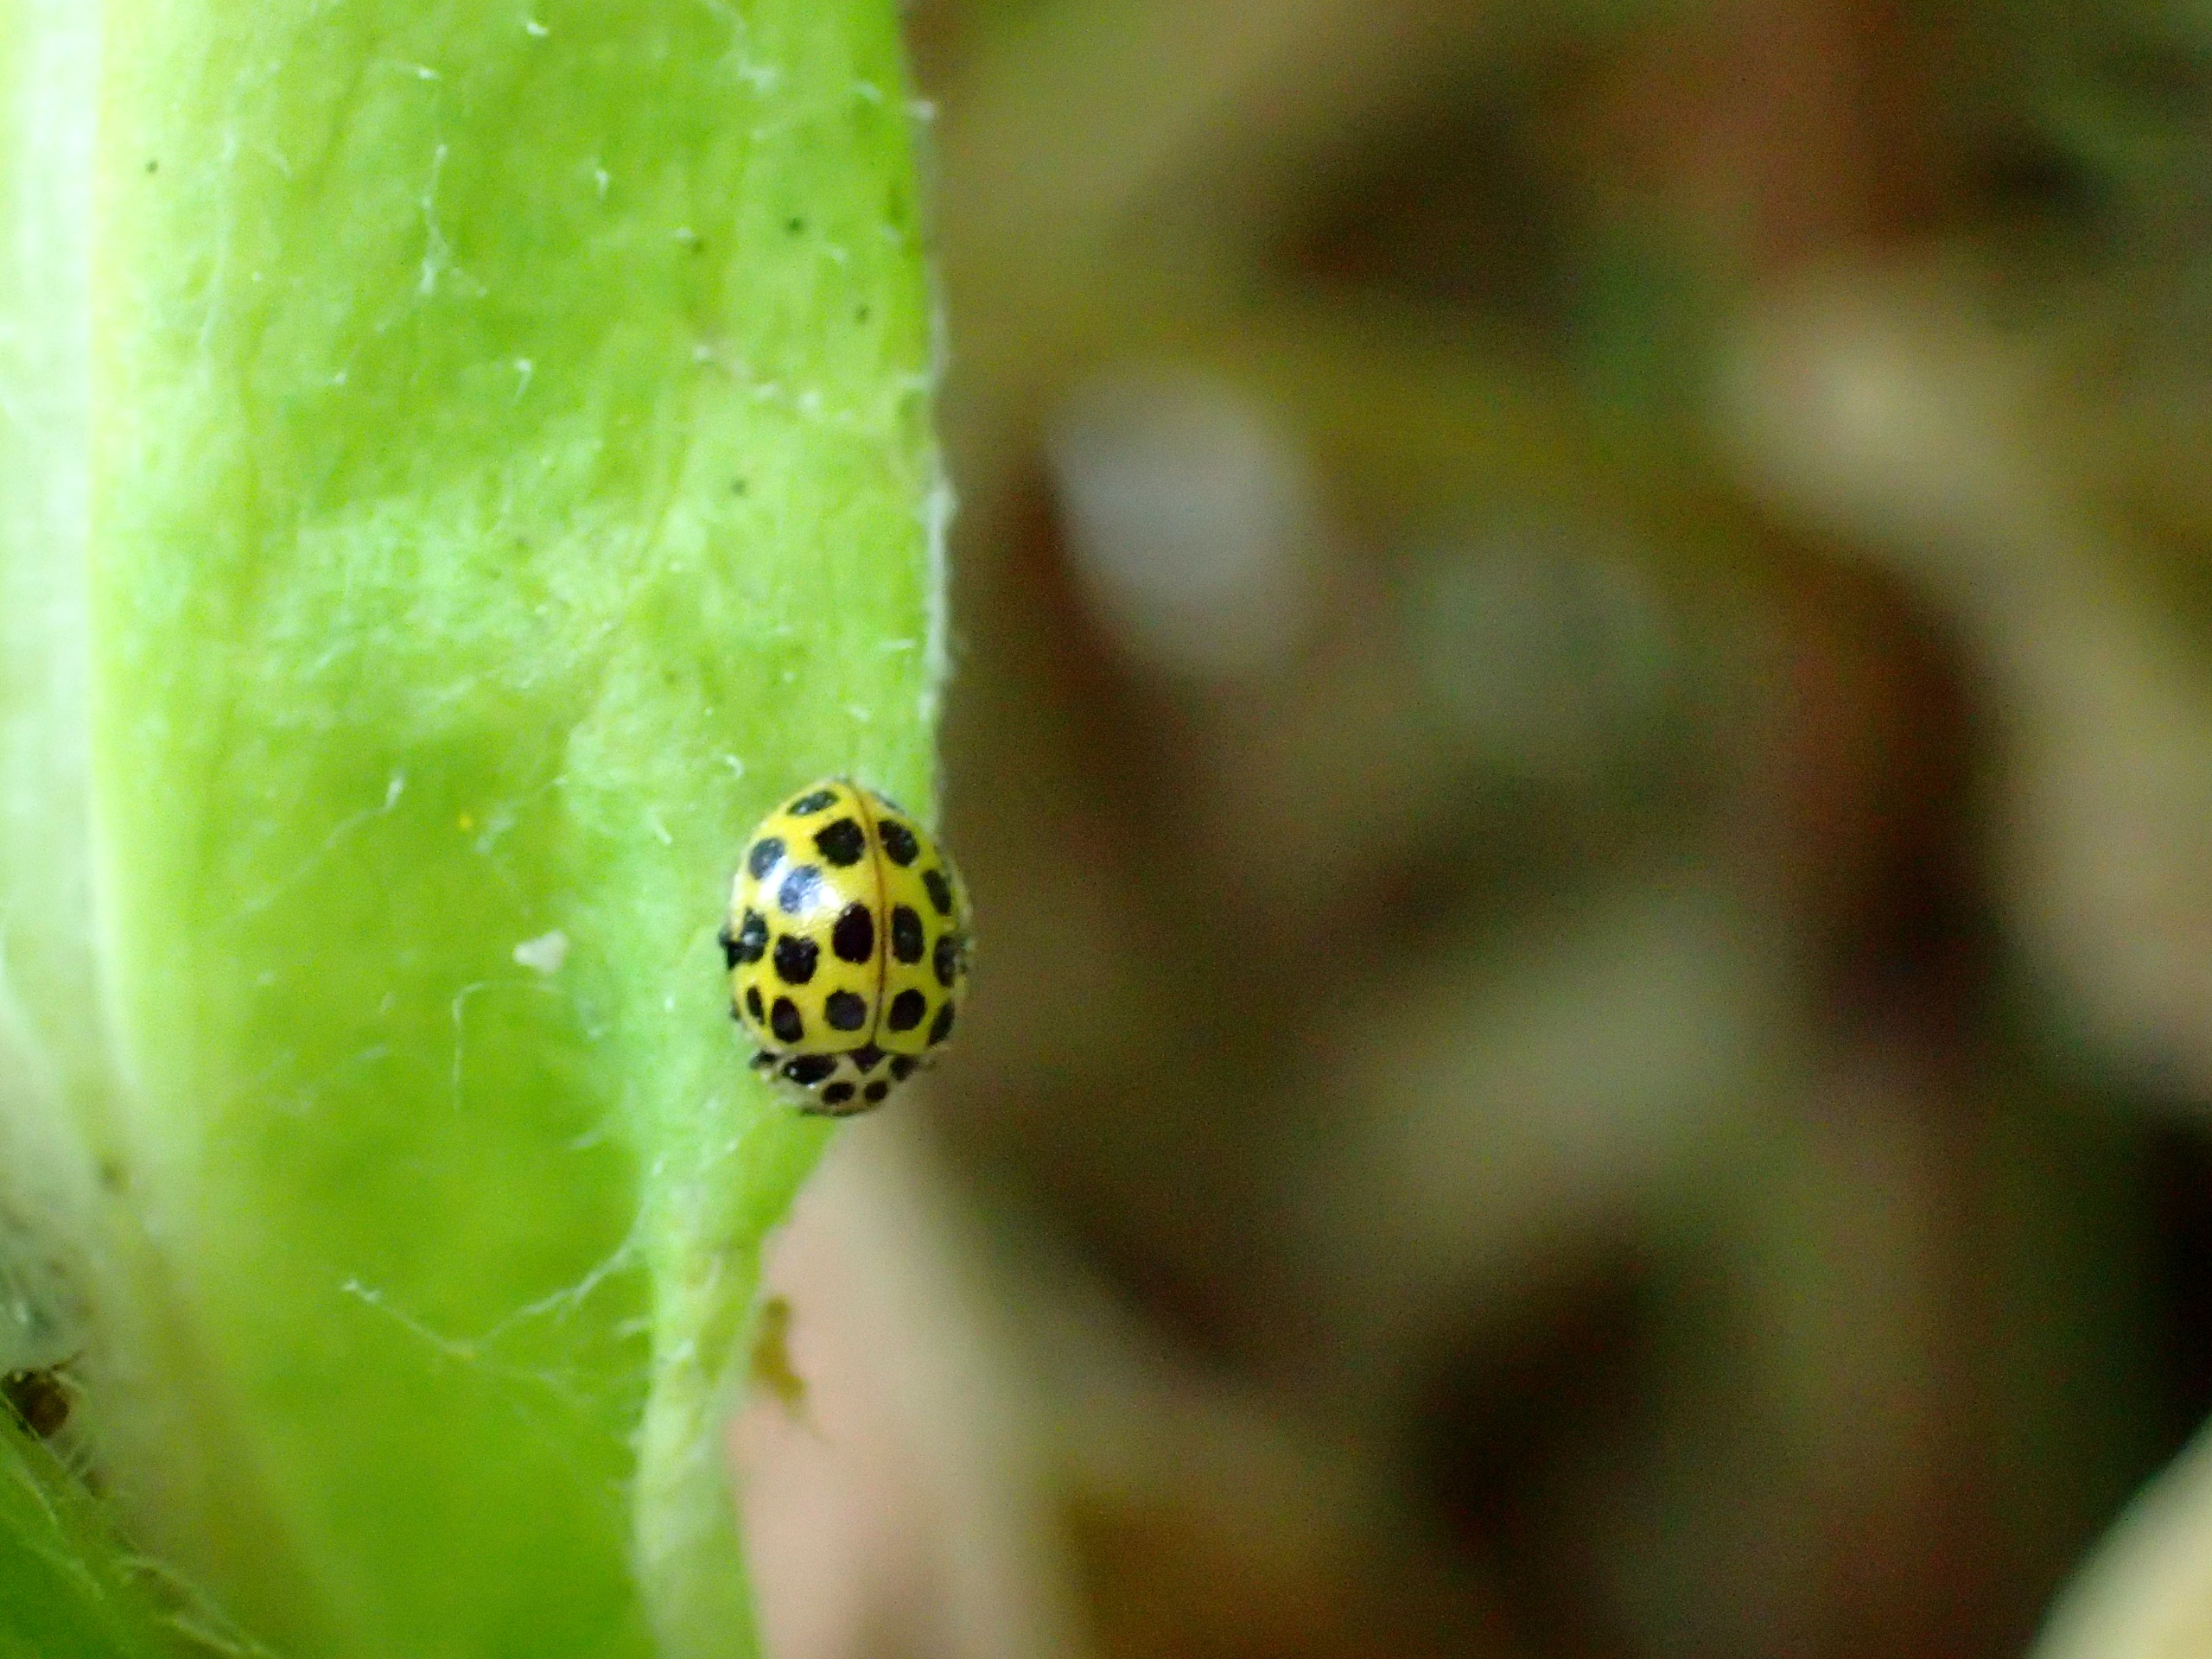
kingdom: Animalia
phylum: Arthropoda
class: Insecta
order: Coleoptera
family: Coccinellidae
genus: Psyllobora
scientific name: Psyllobora vigintiduopunctata
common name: Toogtyveplettet mariehøne
